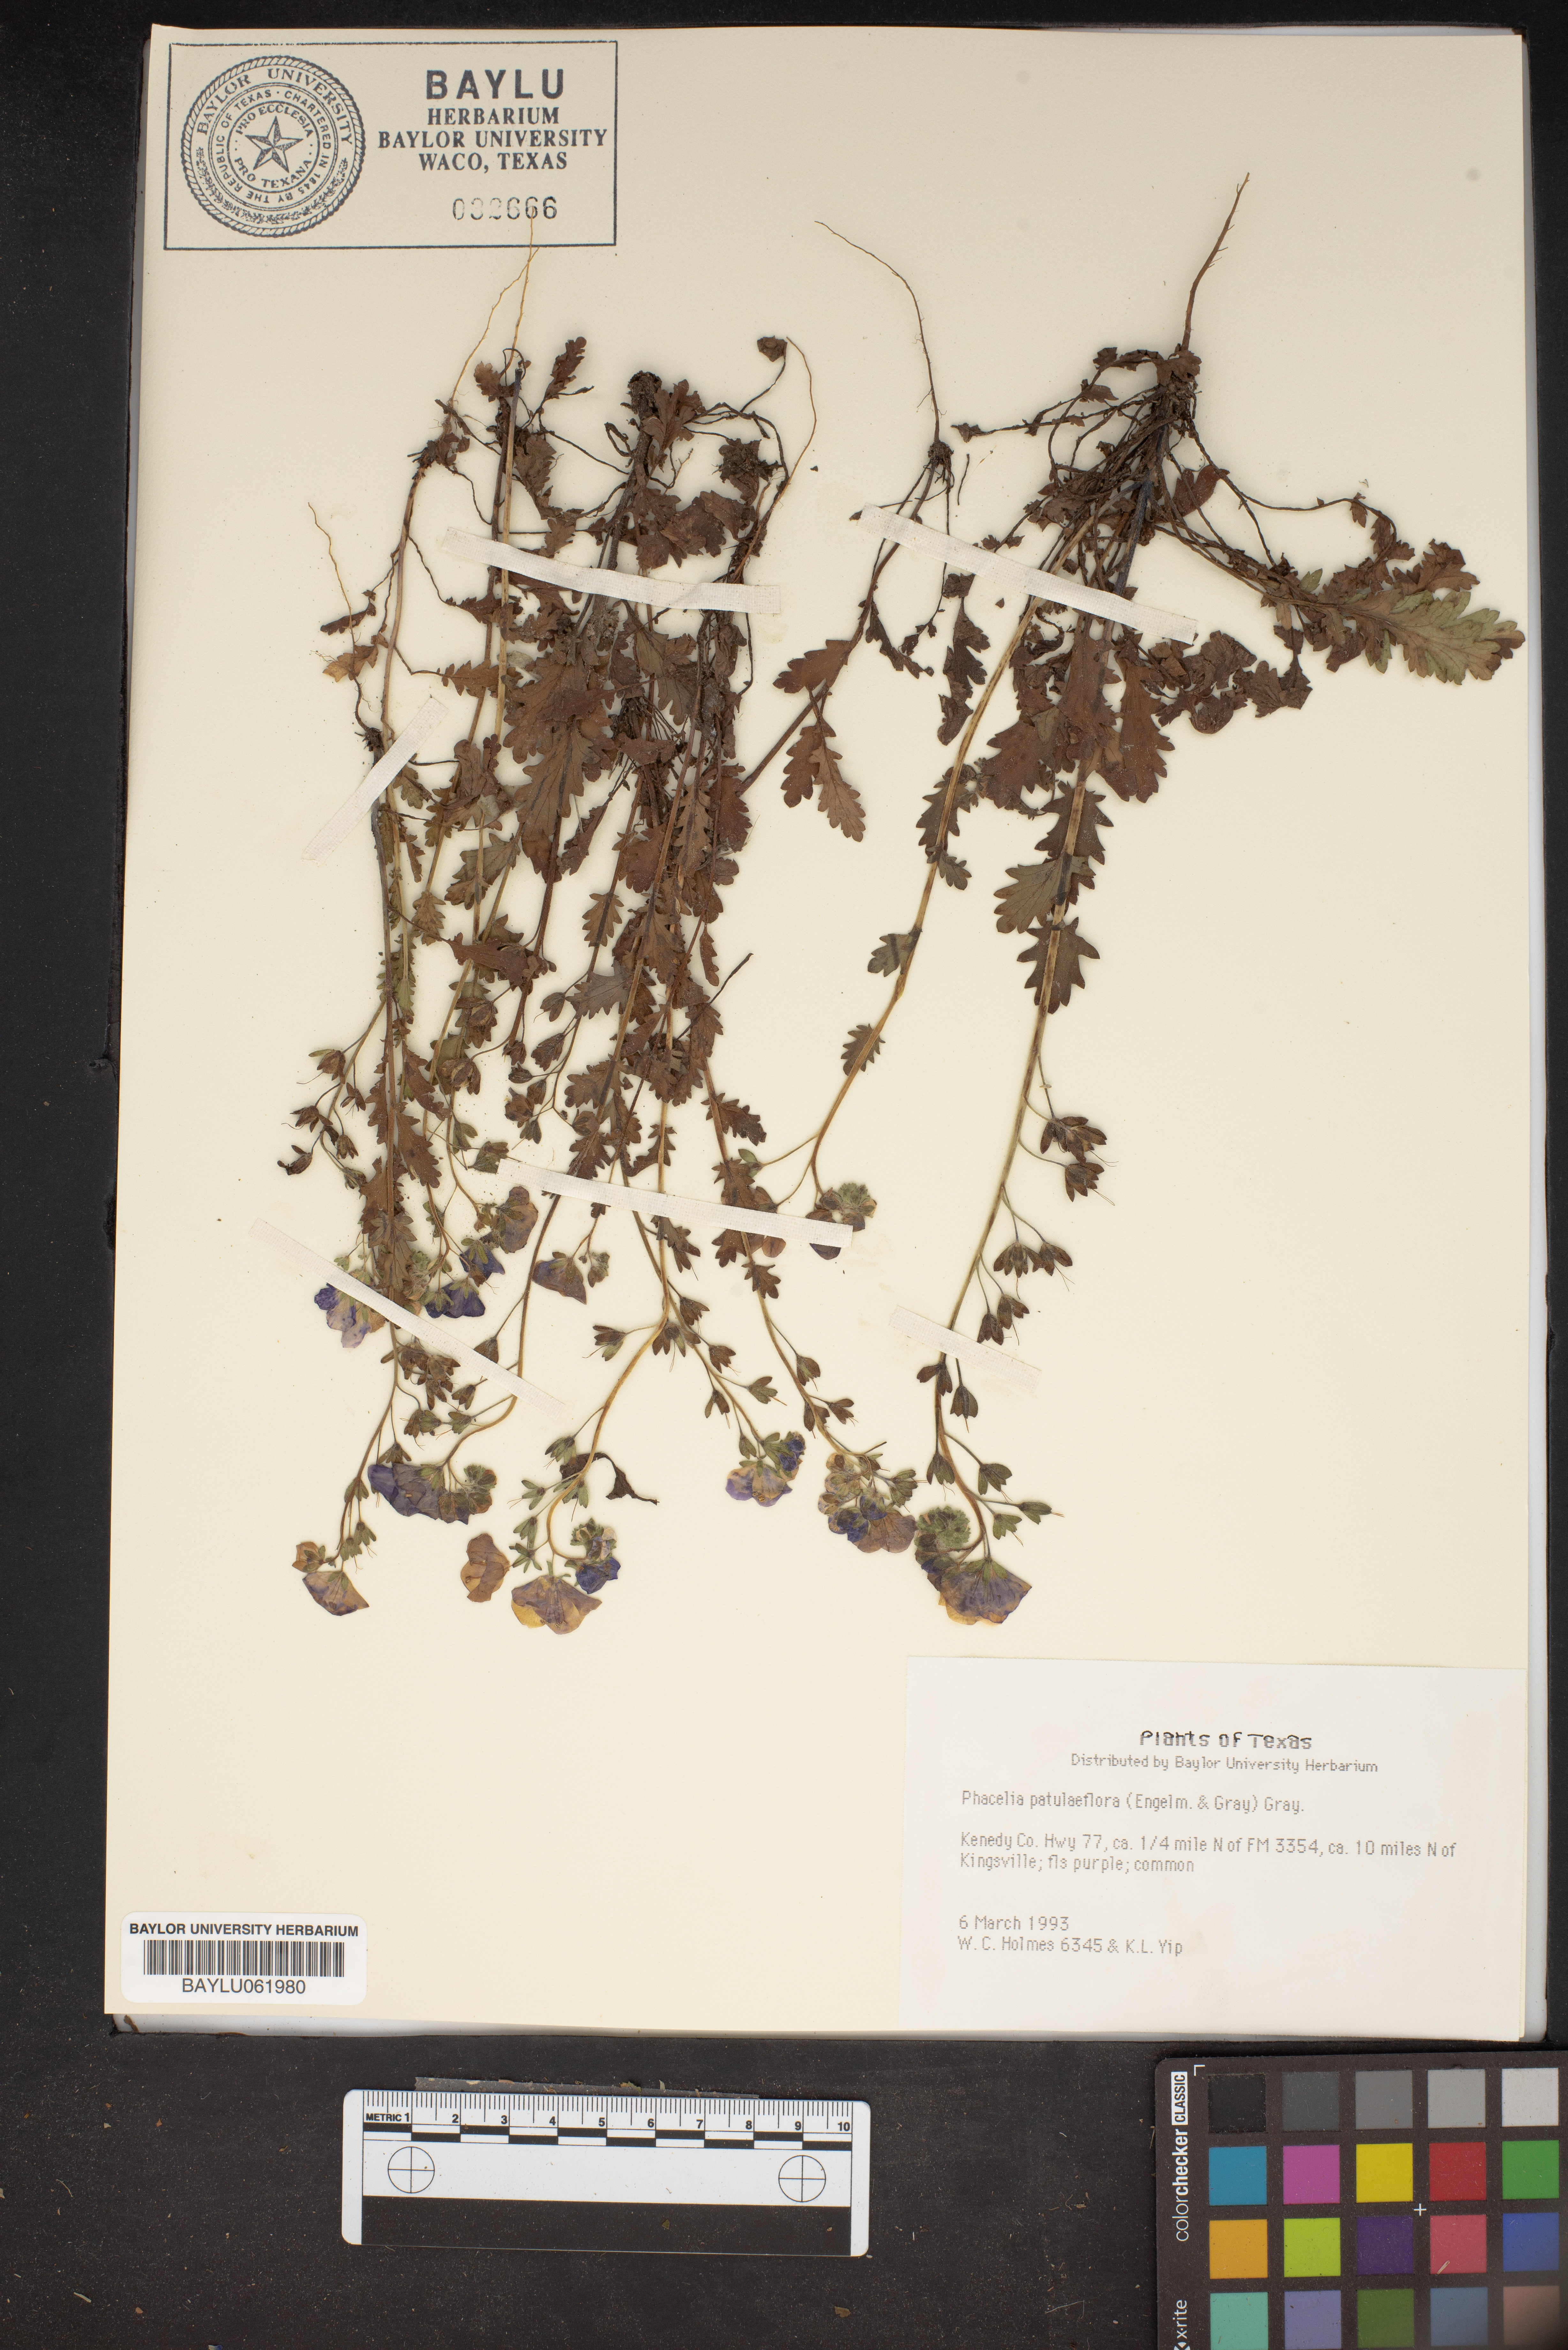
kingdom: Plantae
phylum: Tracheophyta
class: Magnoliopsida
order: Boraginales
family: Hydrophyllaceae
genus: Phacelia
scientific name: Phacelia patuliflora
